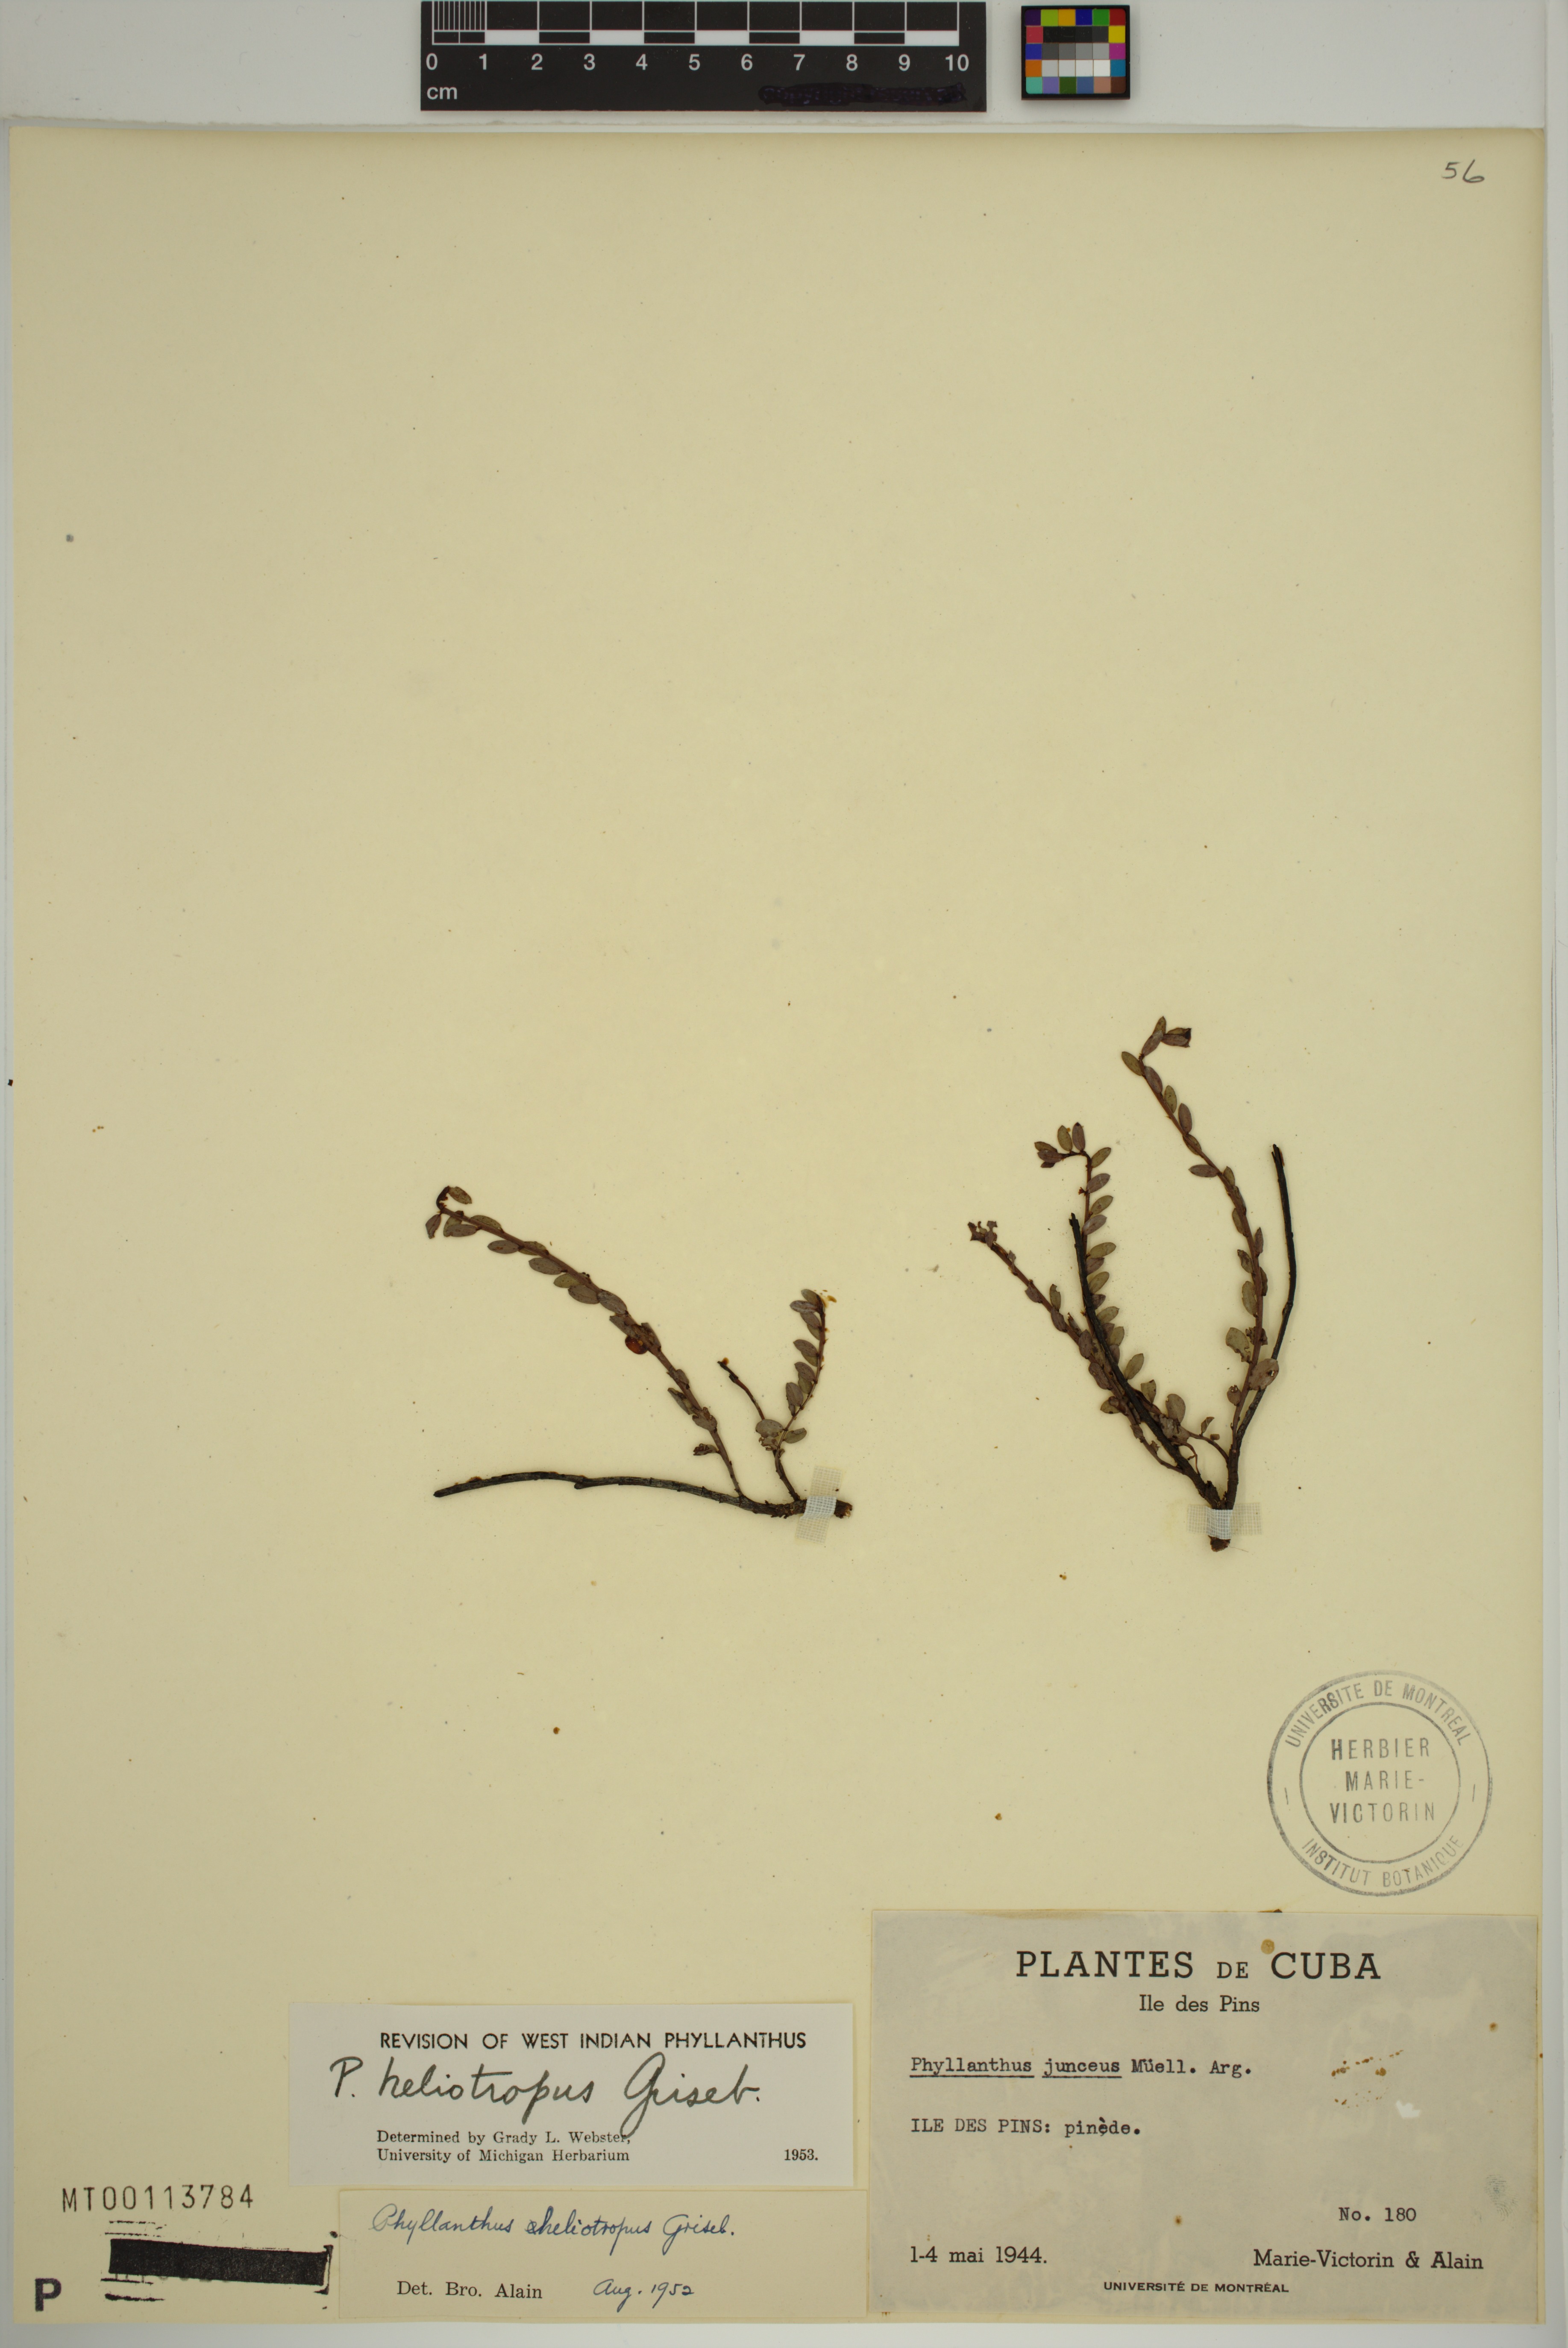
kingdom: Plantae
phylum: Tracheophyta
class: Magnoliopsida
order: Malpighiales
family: Phyllanthaceae
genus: Phyllanthus
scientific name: Phyllanthus heliotropus
